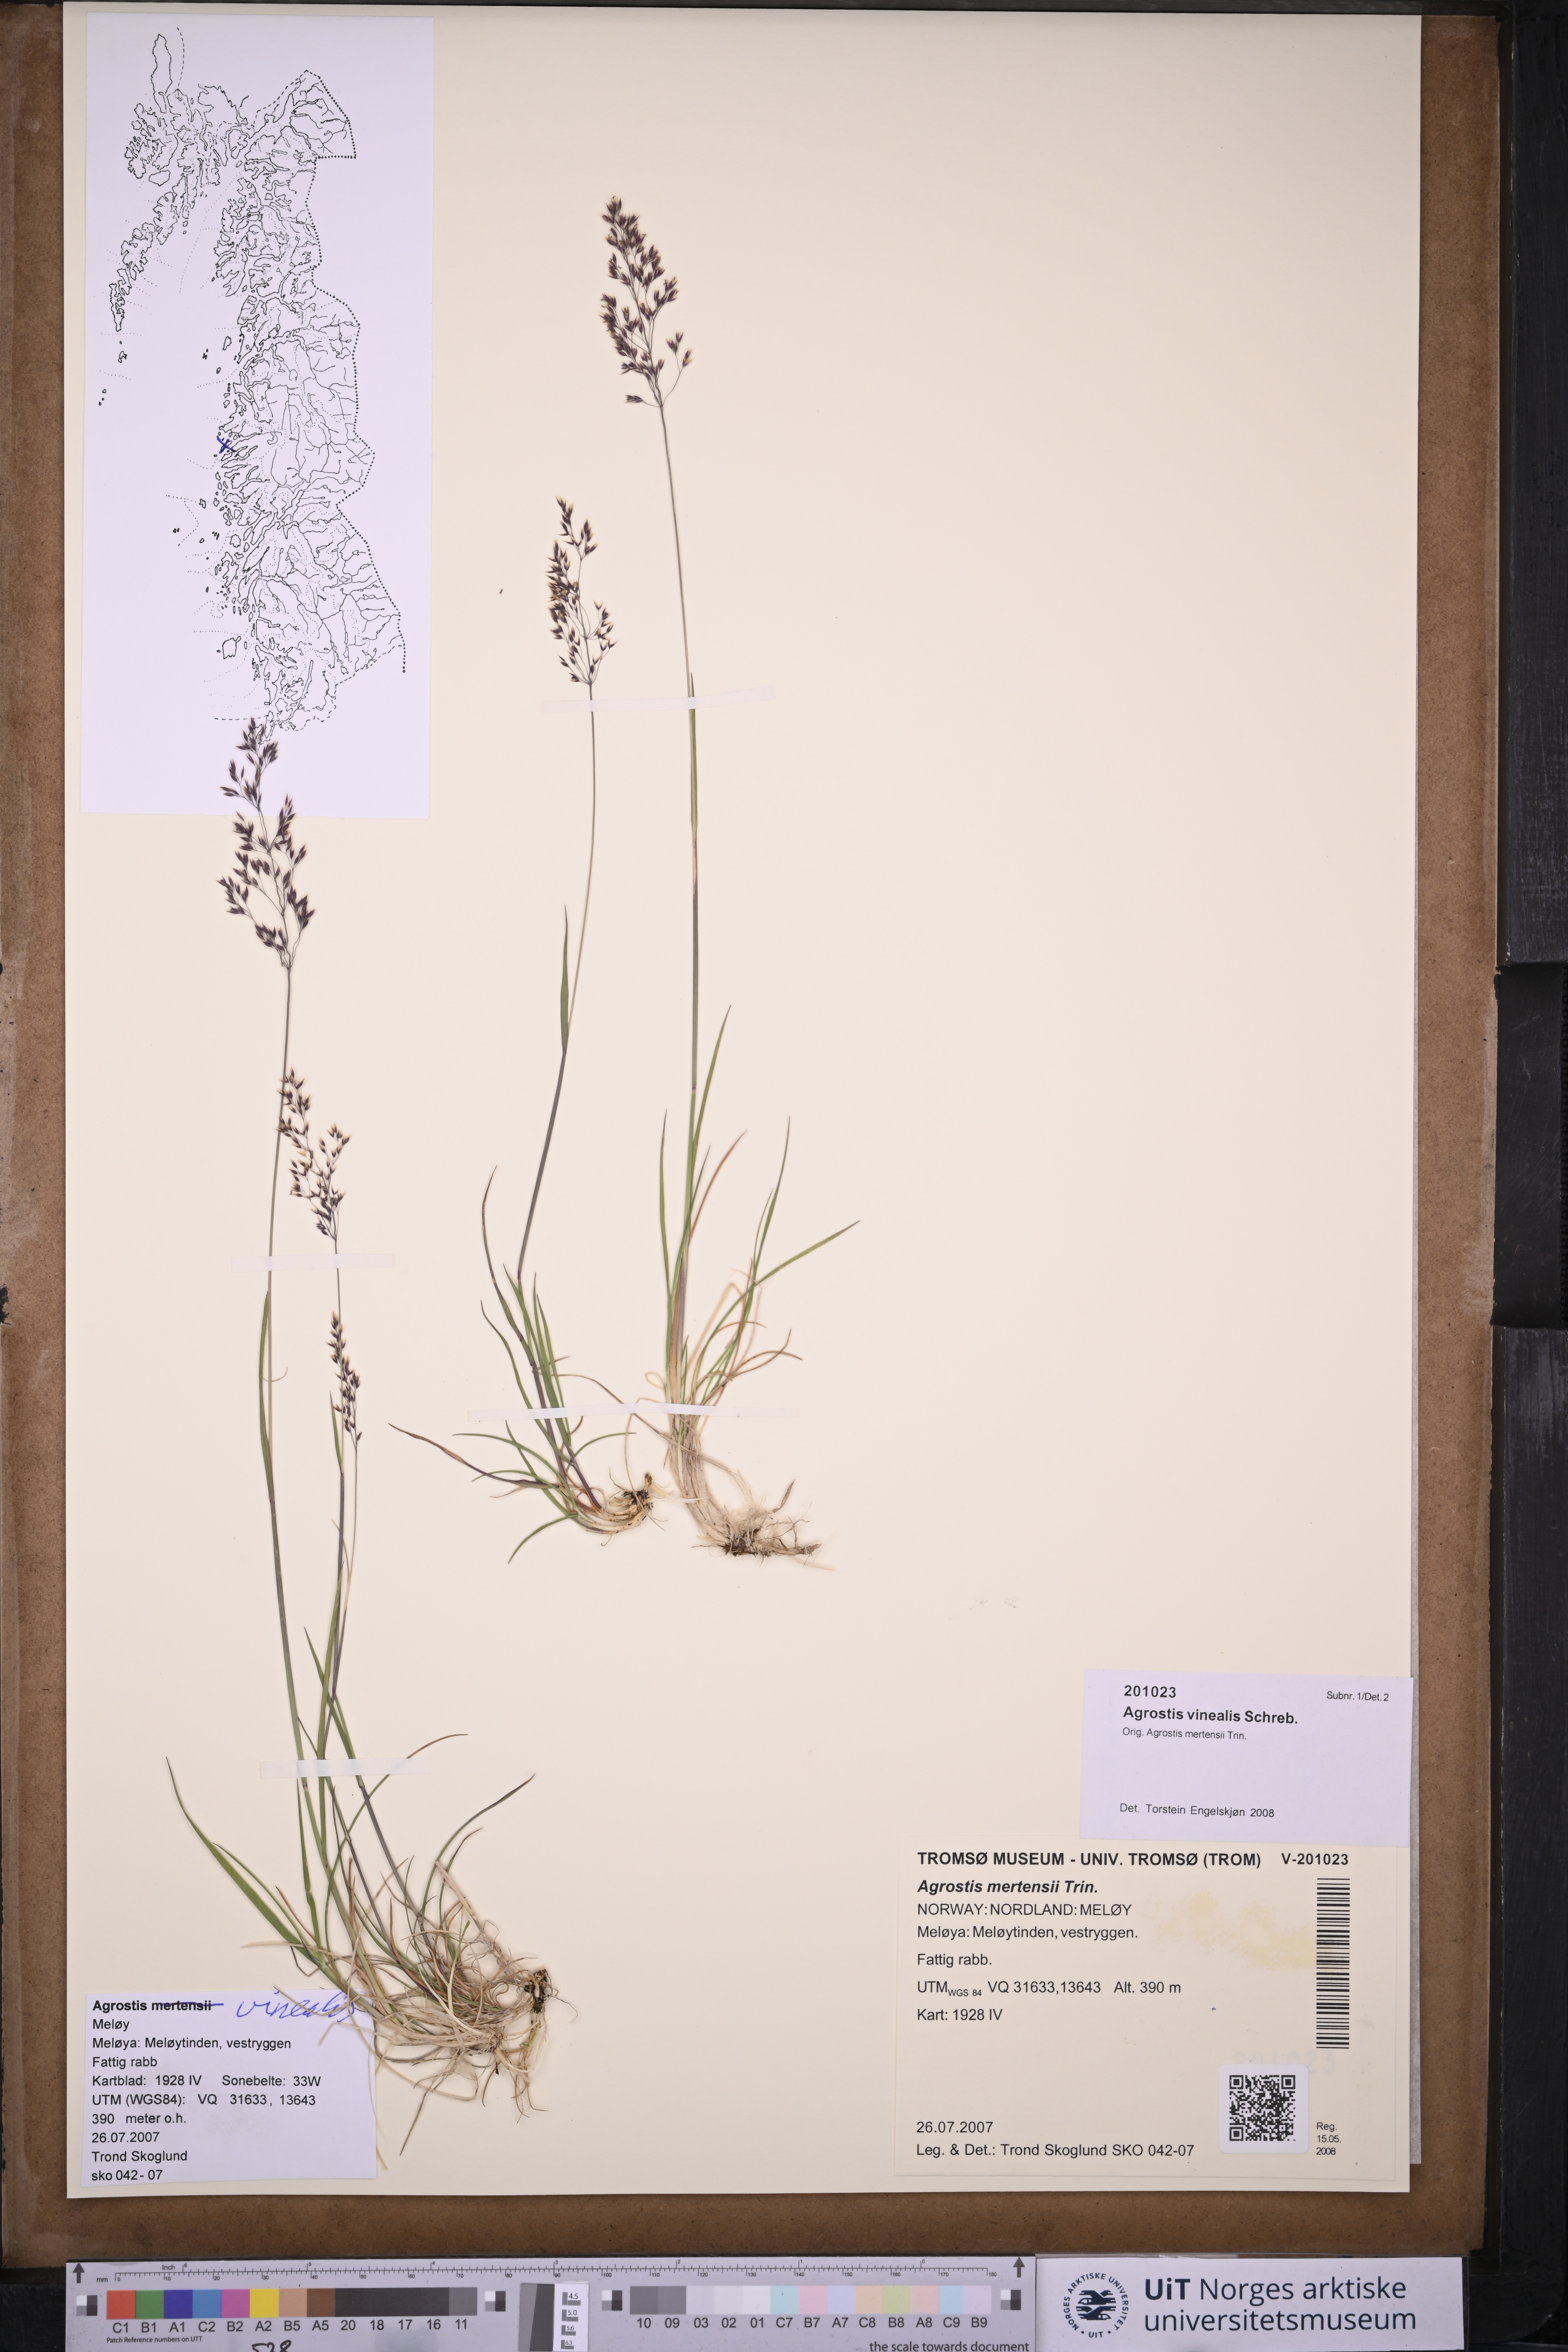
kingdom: Plantae
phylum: Tracheophyta
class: Liliopsida
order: Poales
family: Poaceae
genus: Agrostis
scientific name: Agrostis vinealis
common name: Brown bent
